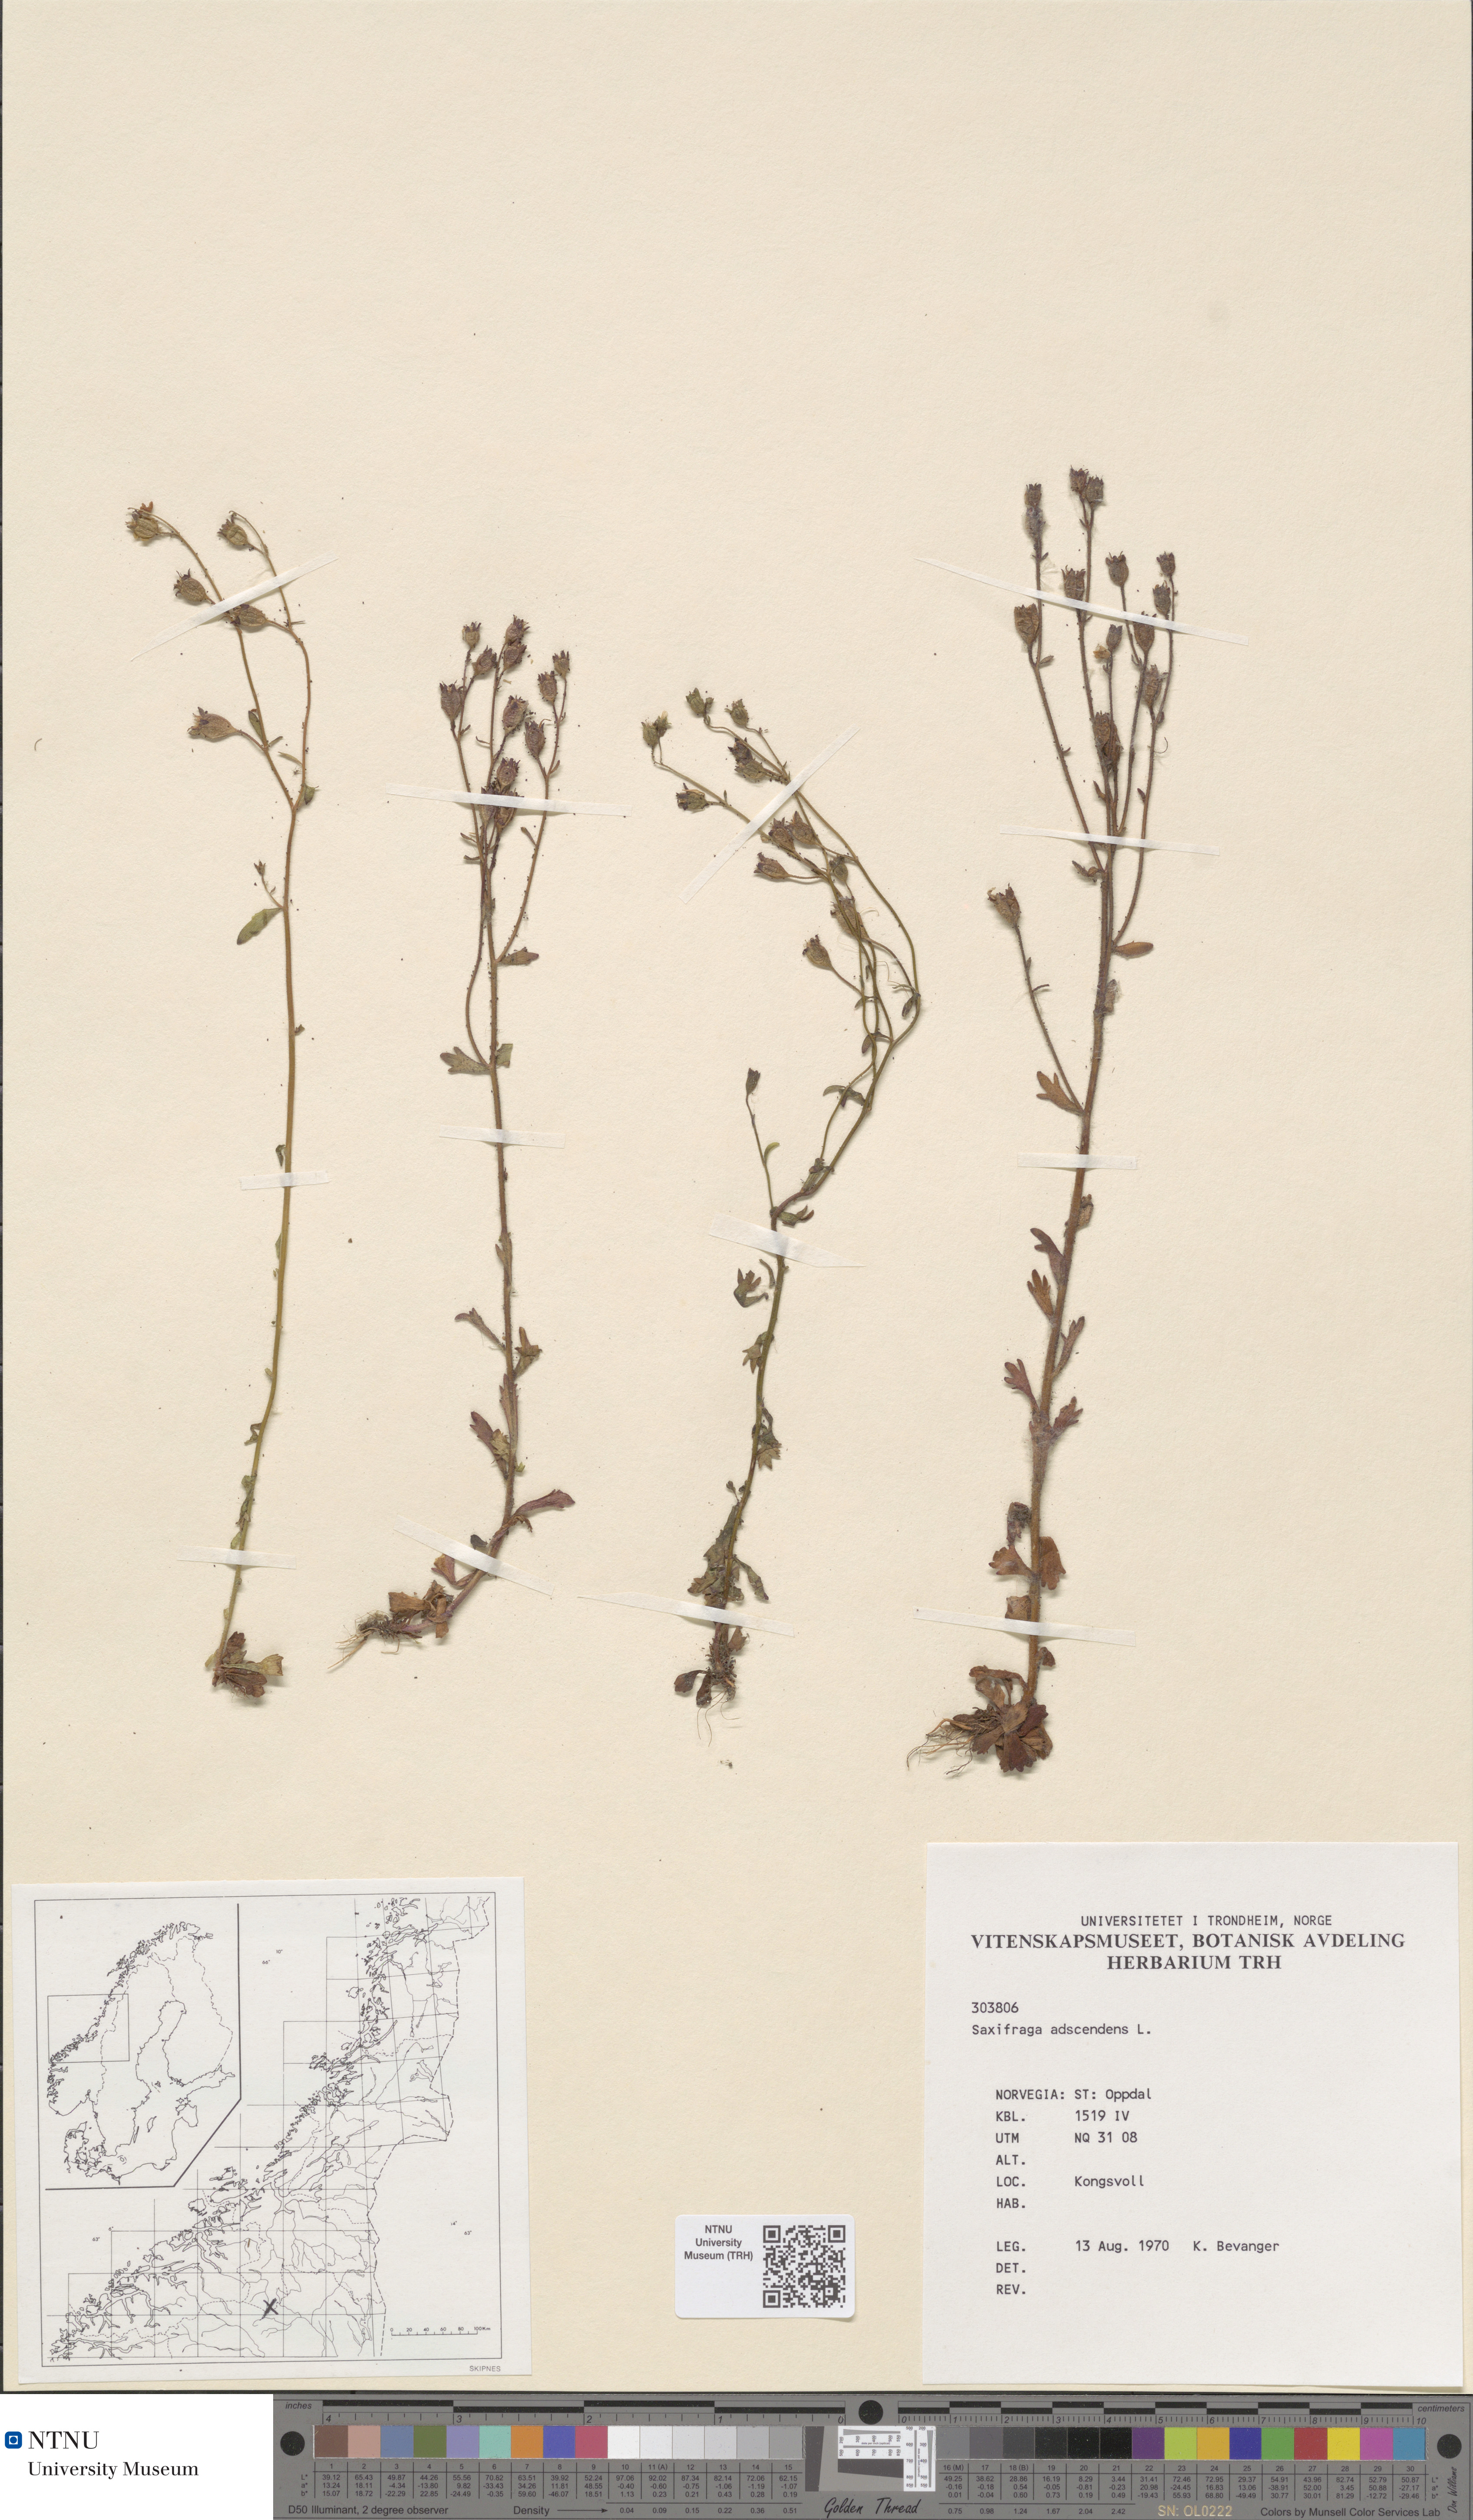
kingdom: Plantae
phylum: Tracheophyta
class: Magnoliopsida
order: Saxifragales
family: Saxifragaceae
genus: Saxifraga
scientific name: Saxifraga adscendens
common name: Ascending saxifrage
